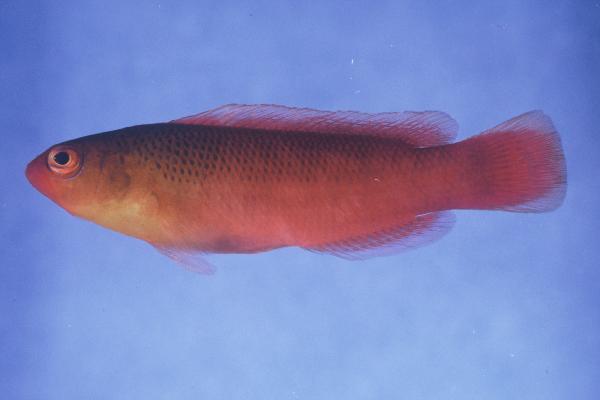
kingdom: Animalia
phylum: Chordata
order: Perciformes
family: Pseudochromidae
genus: Pseudochromis
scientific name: Pseudochromis kristinae
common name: Lipstick dottyback
